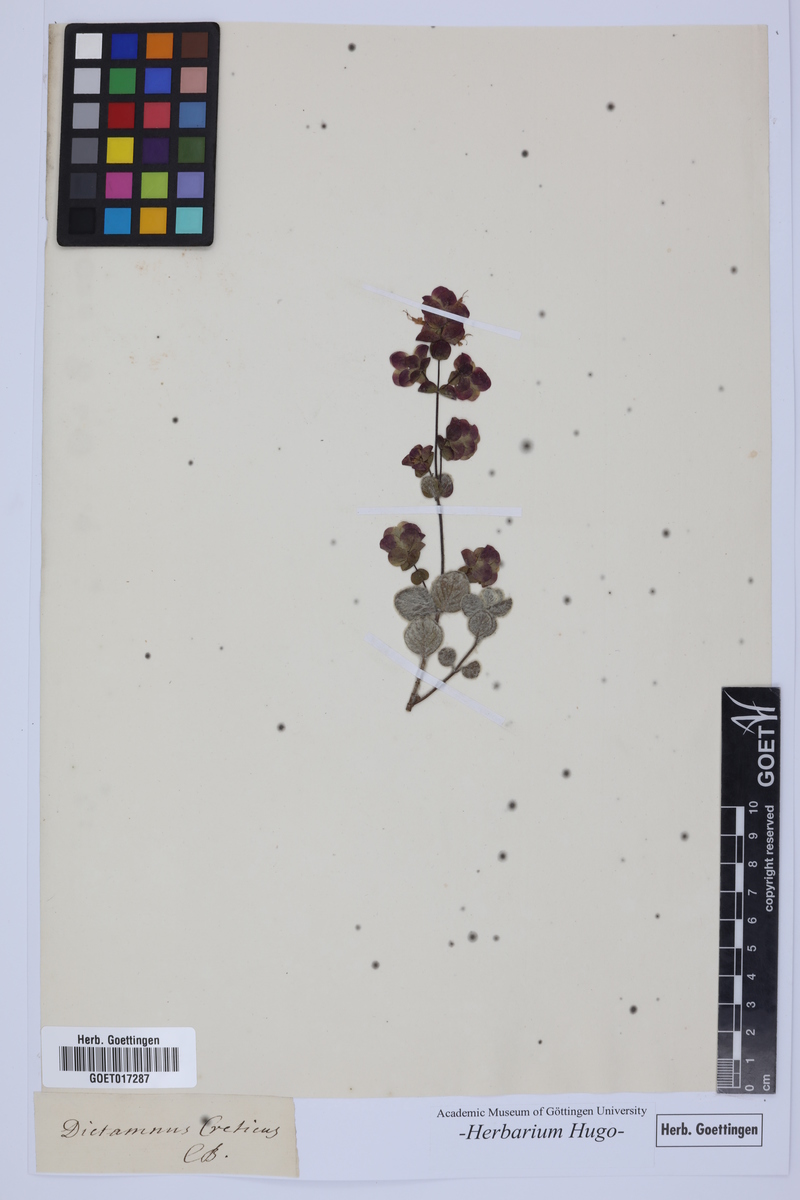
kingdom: Plantae
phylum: Tracheophyta
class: Magnoliopsida
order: Lamiales
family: Lamiaceae
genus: Origanum
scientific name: Origanum dictamnus
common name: Cretan dittany
